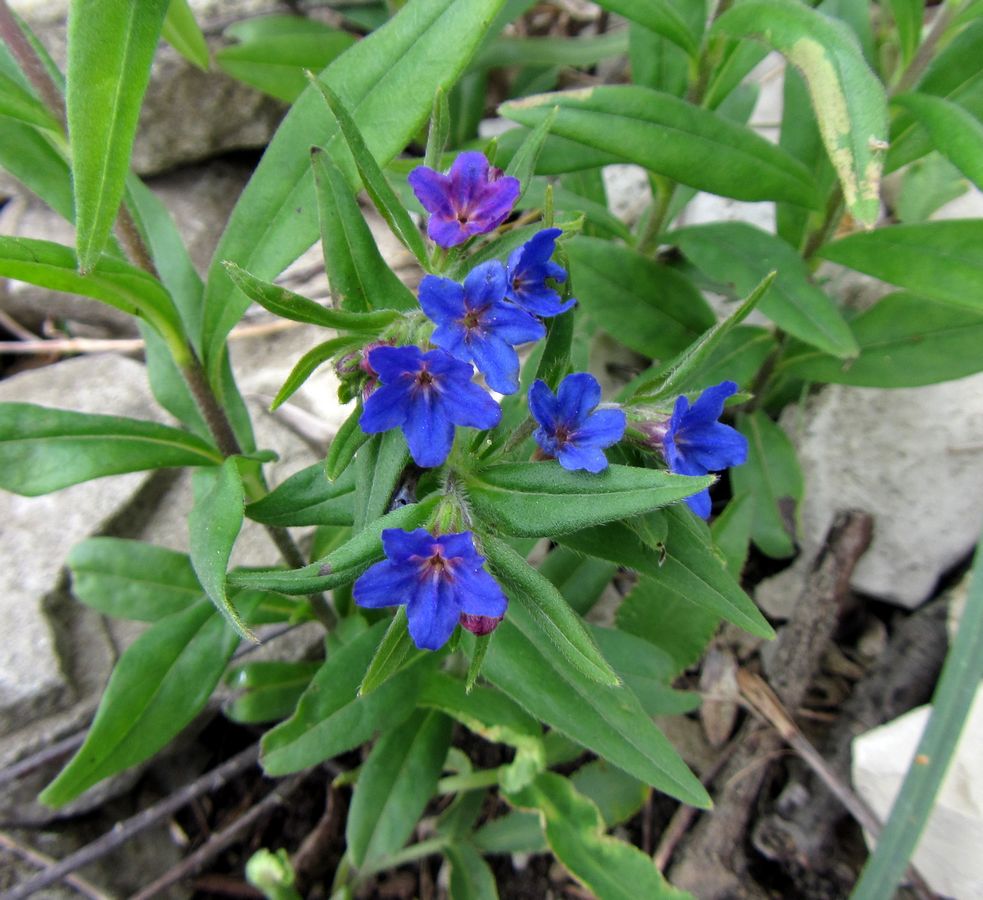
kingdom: Plantae
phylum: Tracheophyta
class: Magnoliopsida
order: Boraginales
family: Boraginaceae
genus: Aegonychon
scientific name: Aegonychon purpurocaeruleum
